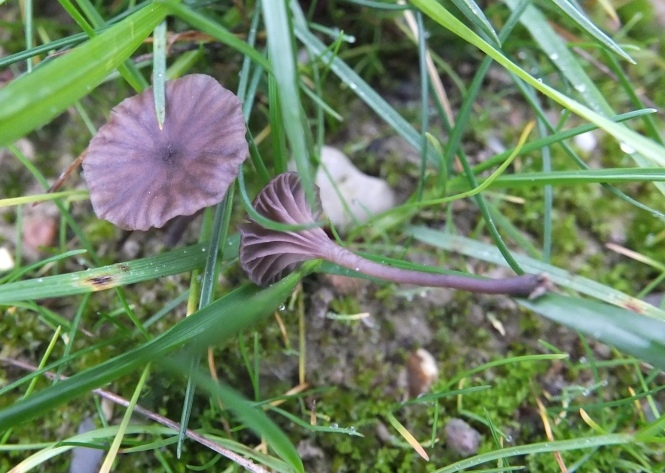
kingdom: Fungi
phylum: Basidiomycota
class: Agaricomycetes
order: Agaricales
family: Hygrophoraceae
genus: Arrhenia
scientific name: Arrhenia griseopallida
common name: bleggrå fontænehat
